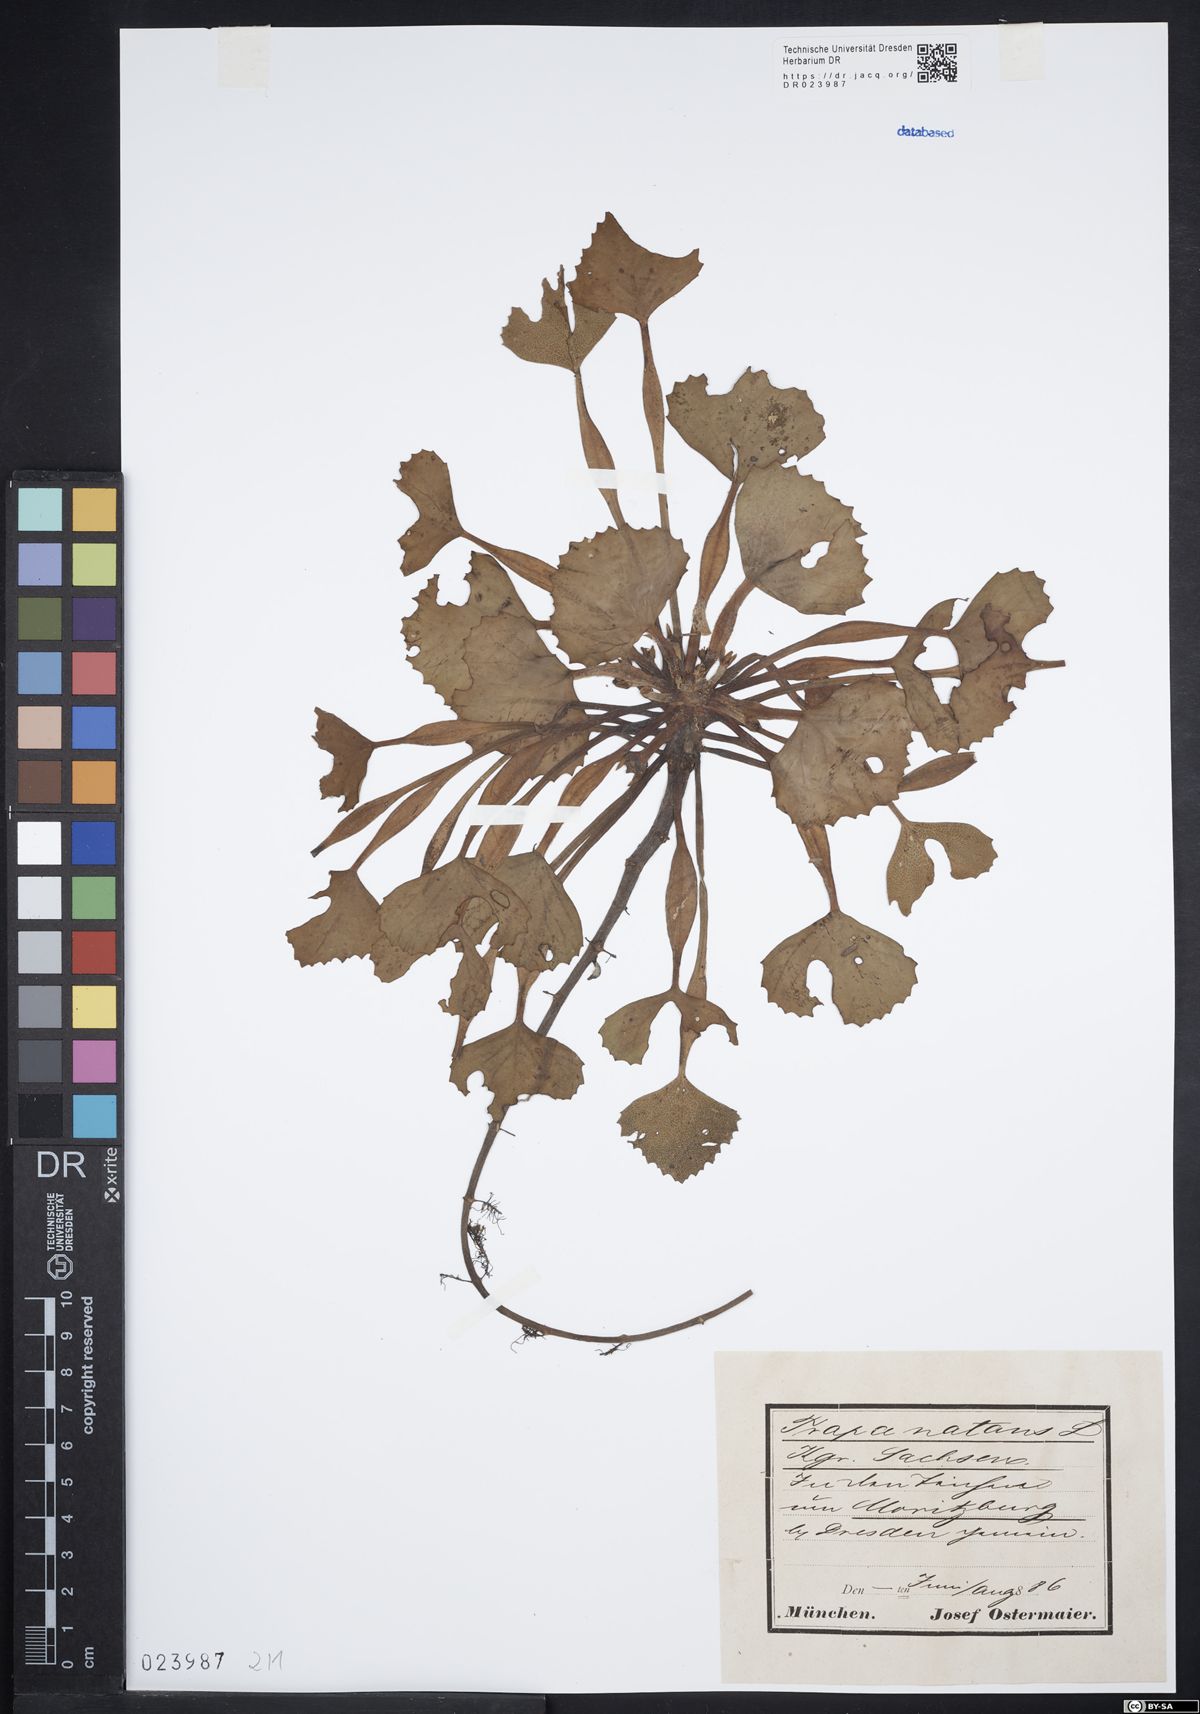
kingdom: Plantae
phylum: Tracheophyta
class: Magnoliopsida
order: Myrtales
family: Lythraceae
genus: Trapa
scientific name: Trapa natans
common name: Water chestnut
